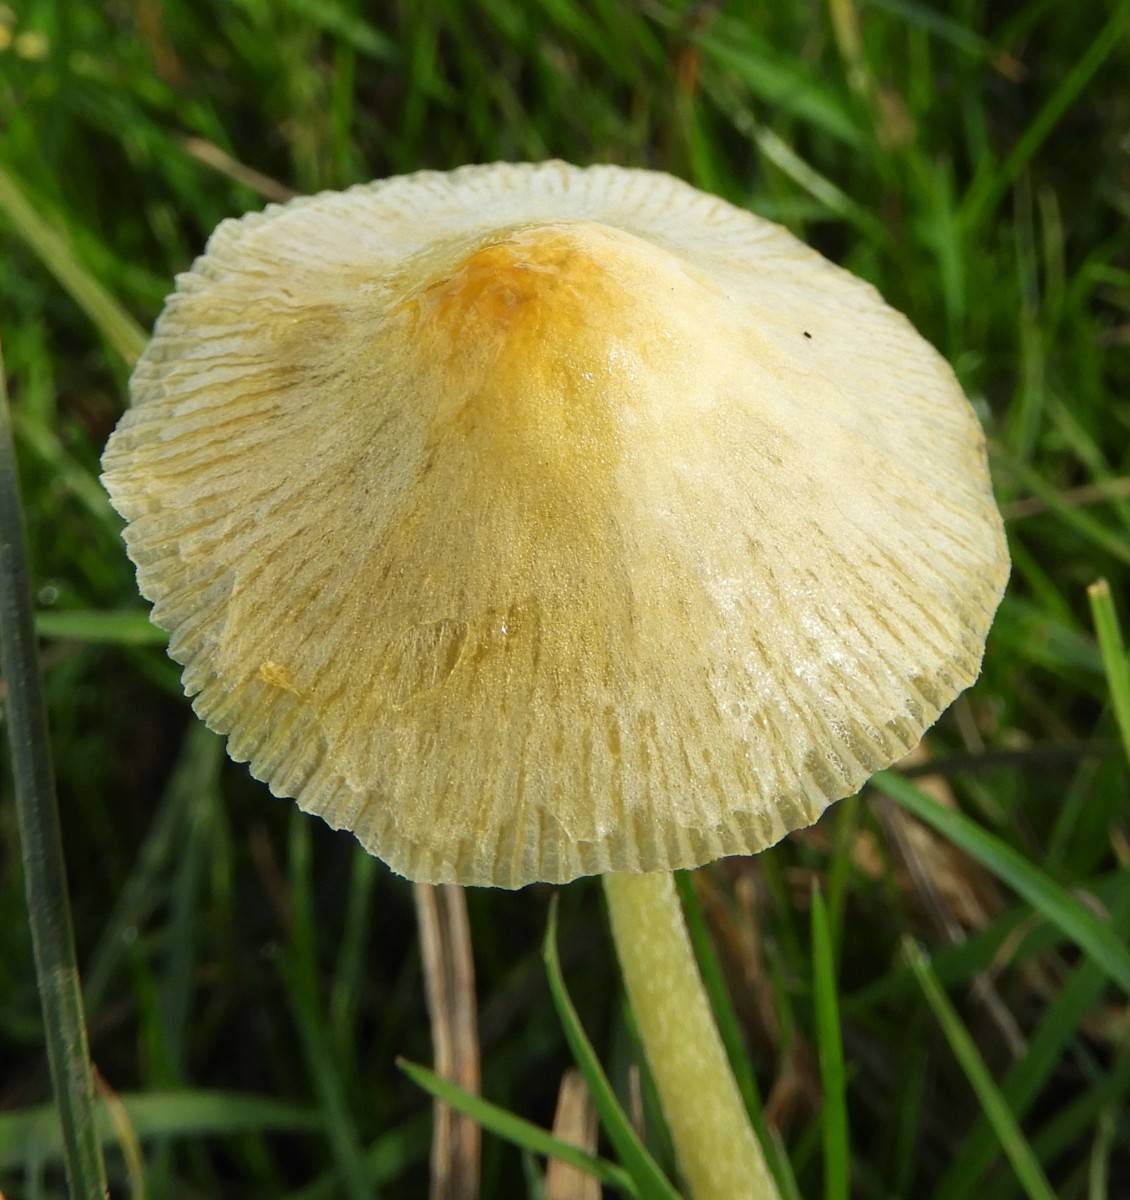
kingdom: Fungi
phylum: Basidiomycota
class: Agaricomycetes
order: Agaricales
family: Bolbitiaceae
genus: Bolbitius
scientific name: Bolbitius titubans
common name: almindelig gulhat
